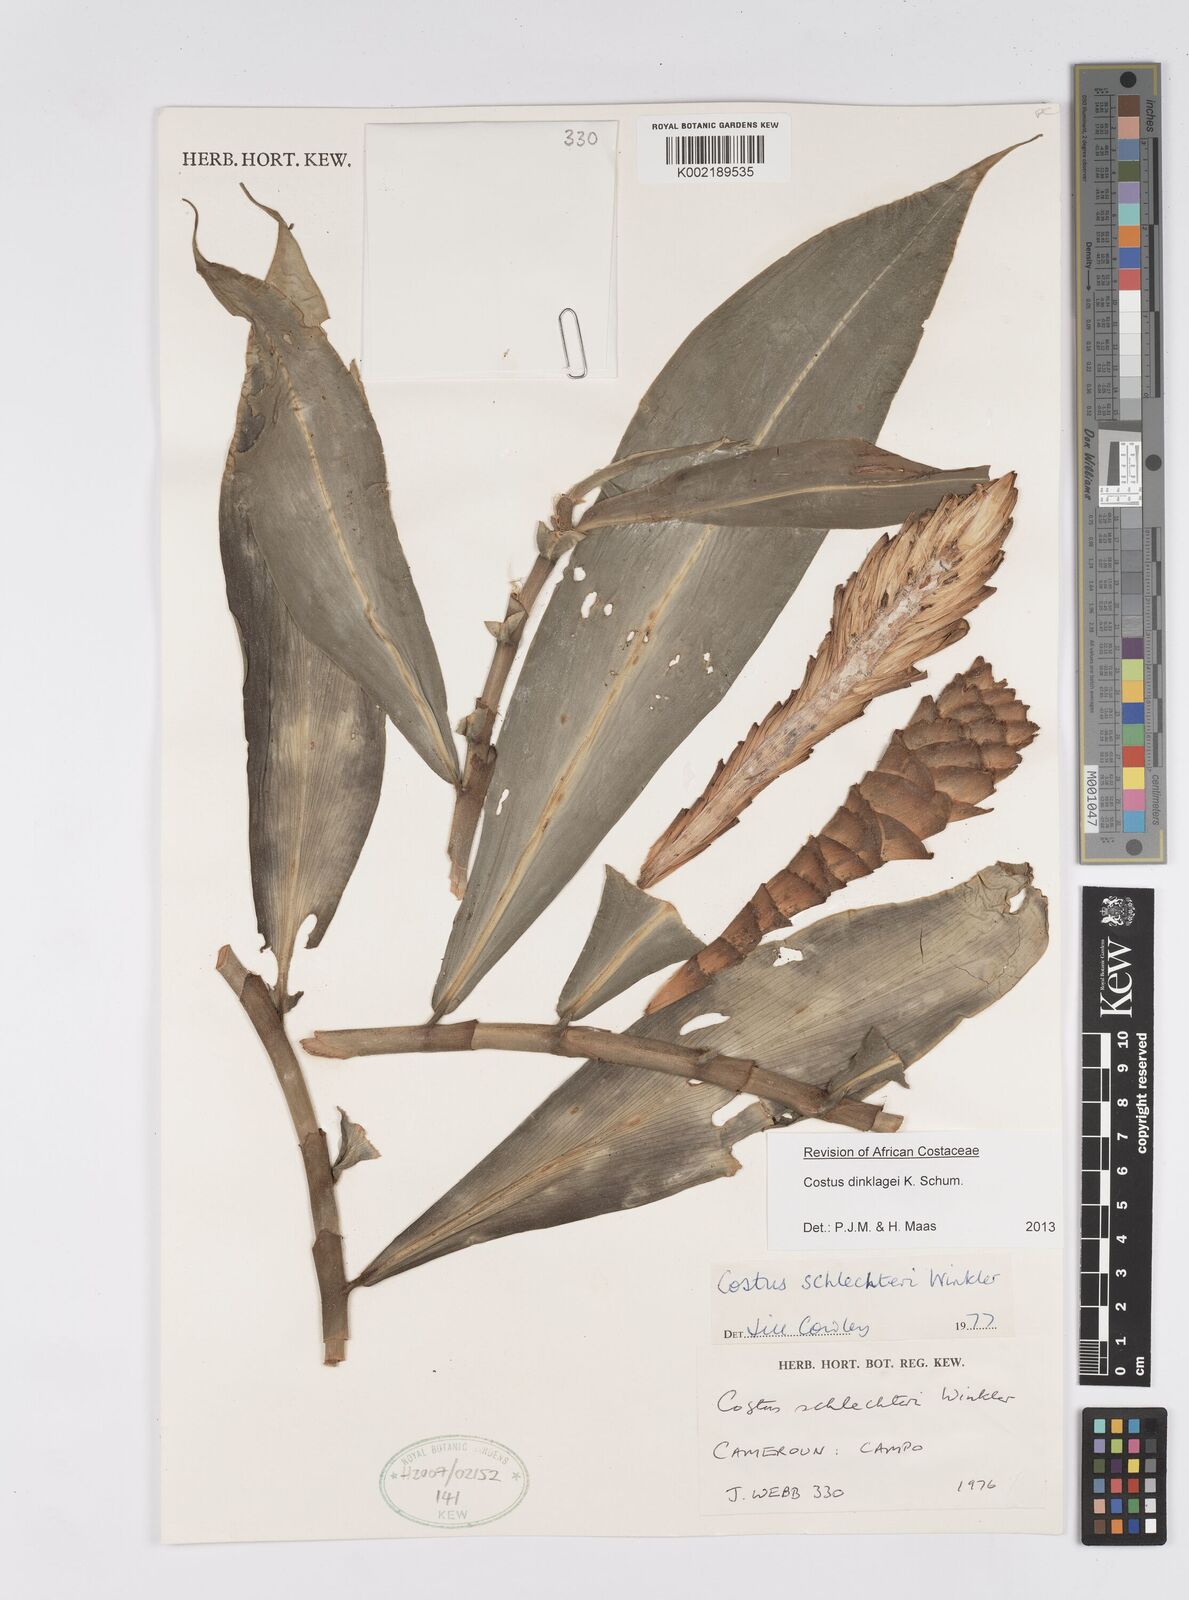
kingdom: Plantae
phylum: Tracheophyta
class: Liliopsida
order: Zingiberales
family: Costaceae
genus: Costus
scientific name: Costus dinklagei
